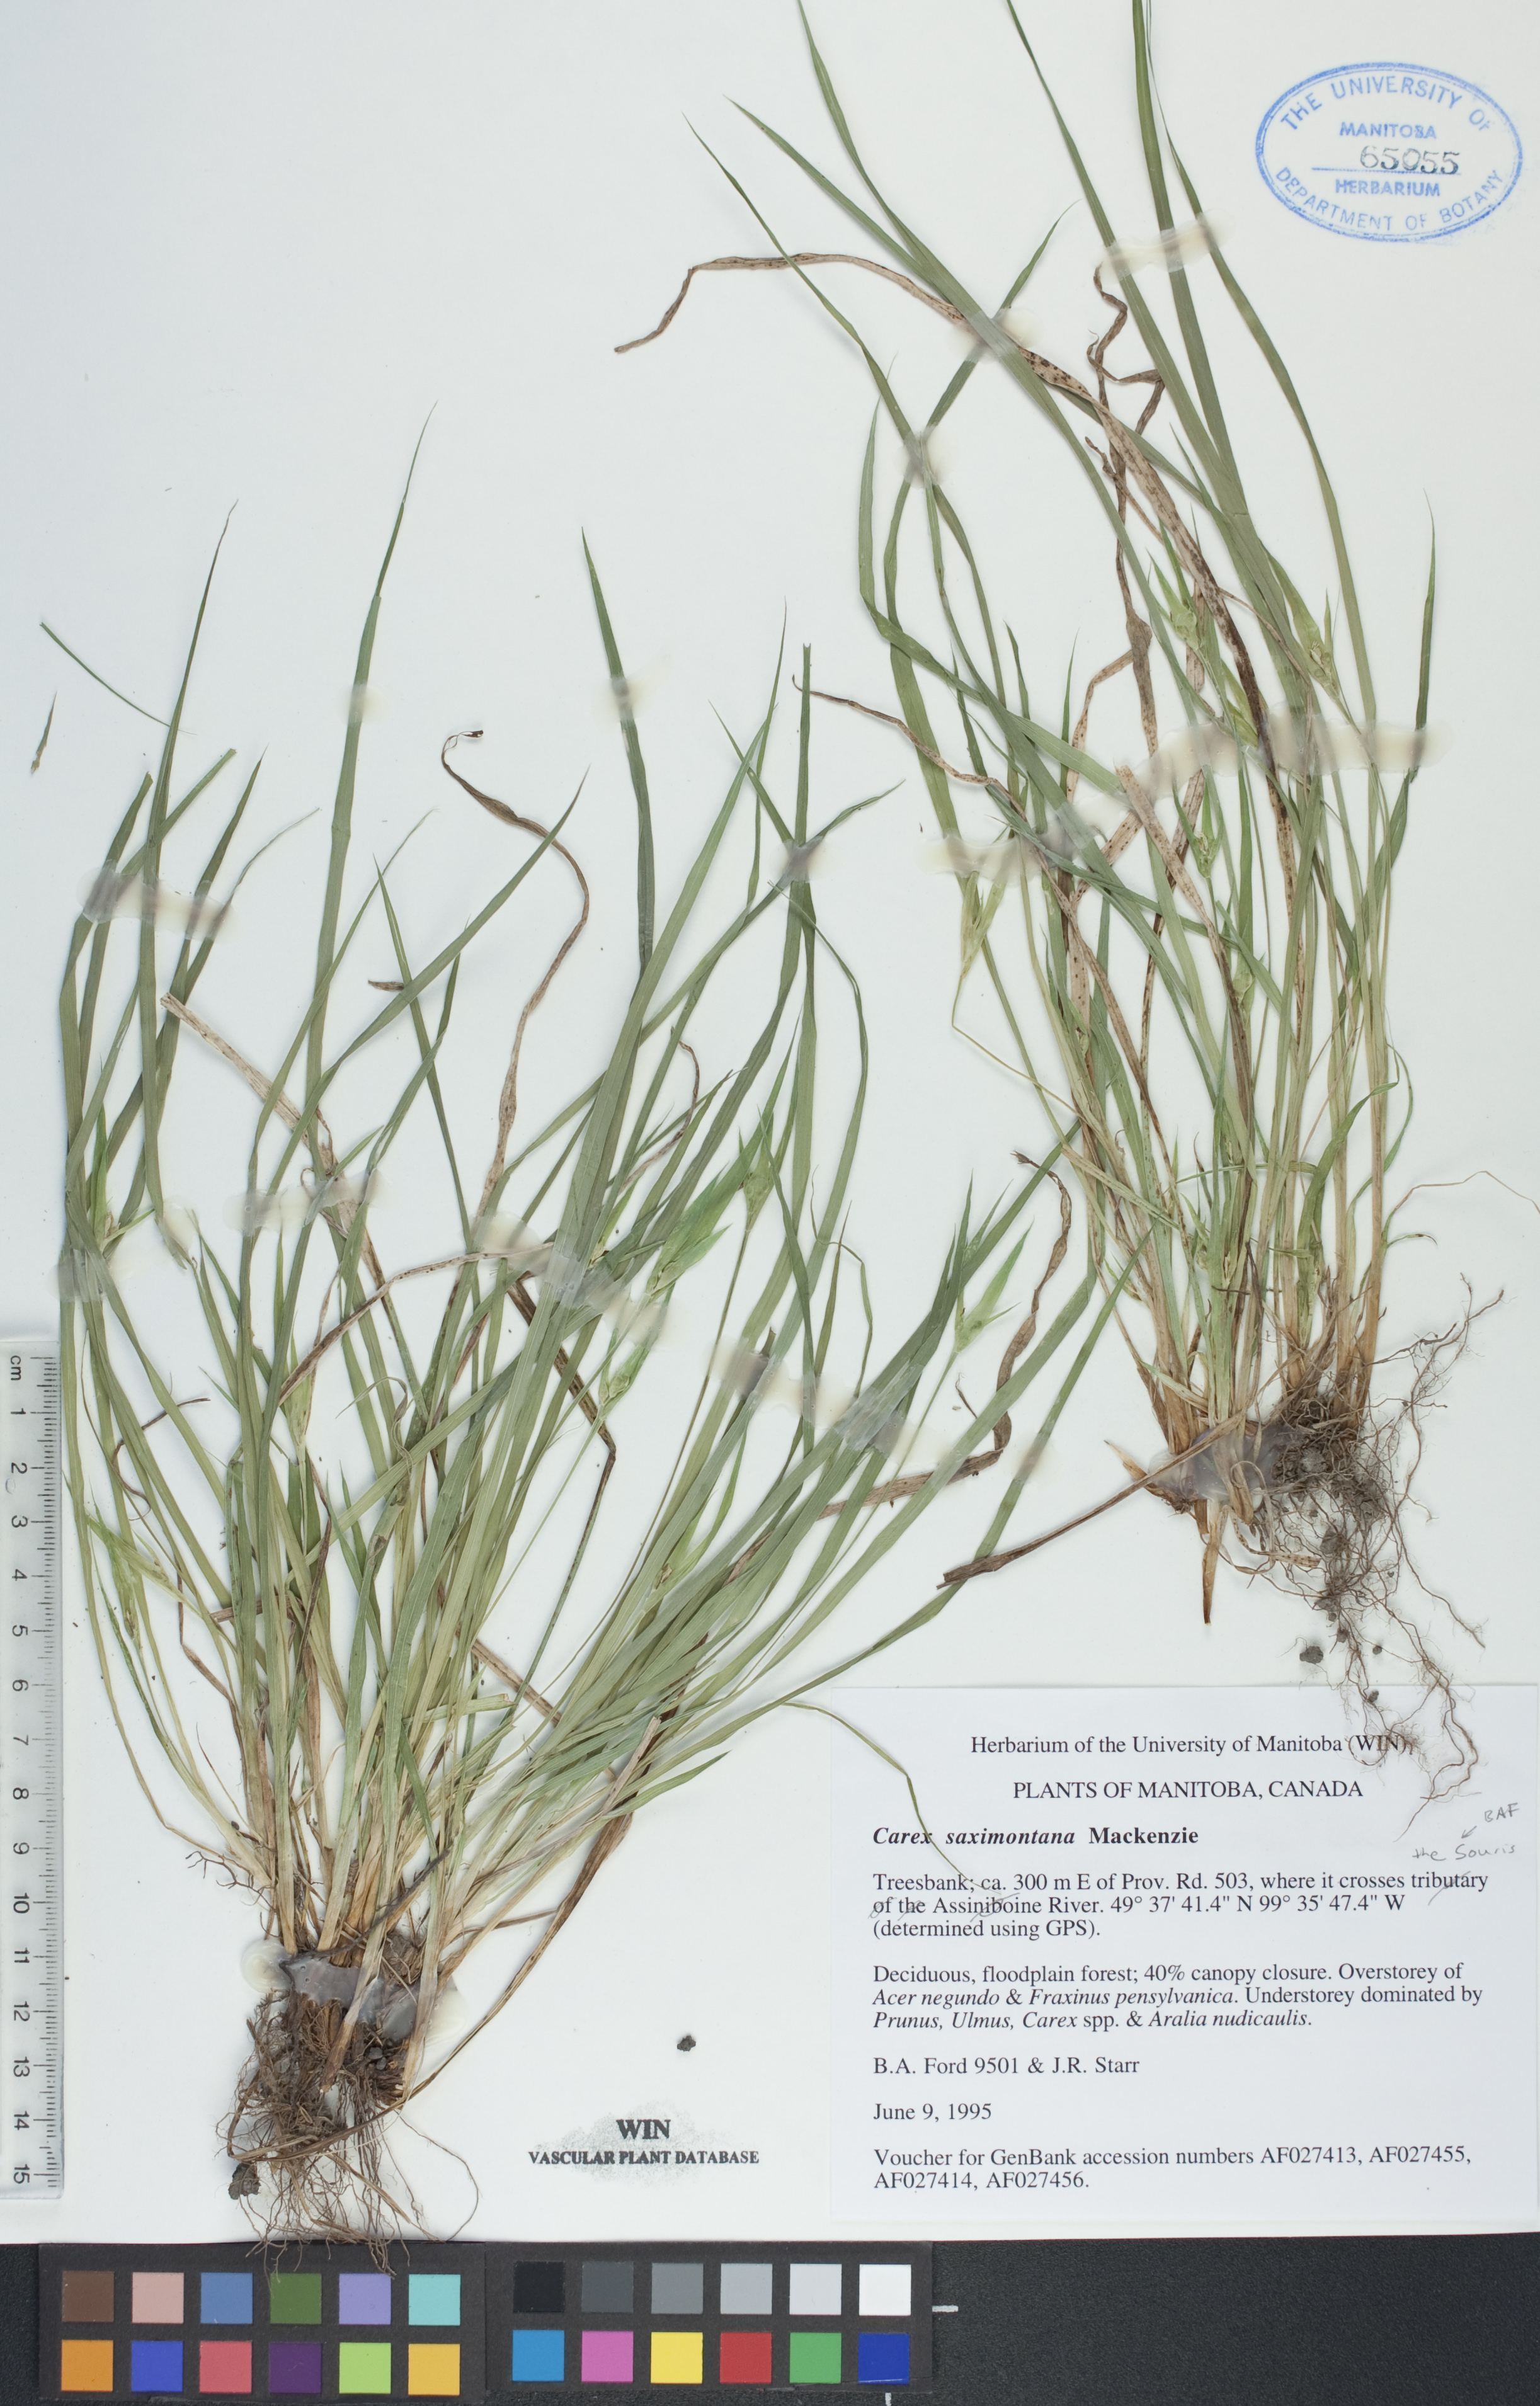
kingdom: Plantae
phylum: Tracheophyta
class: Liliopsida
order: Poales
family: Cyperaceae
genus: Carex
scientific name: Carex saximontana
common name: Rocky mountain sedge
